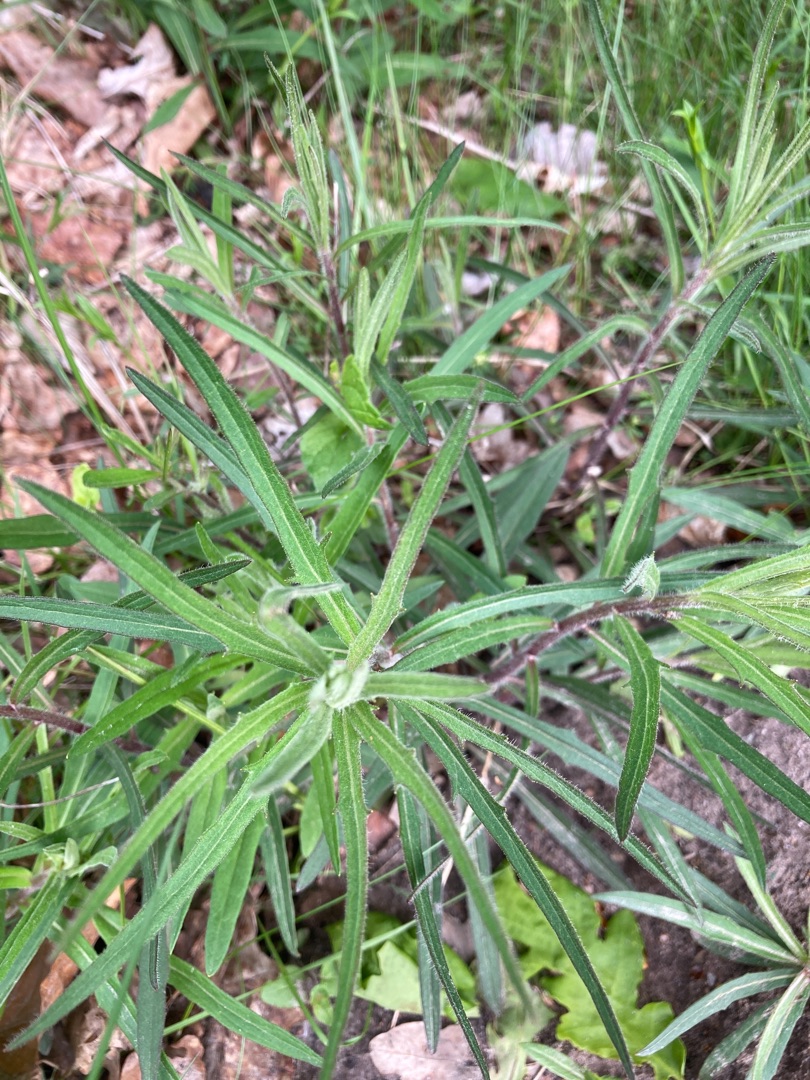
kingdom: Plantae
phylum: Tracheophyta
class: Magnoliopsida
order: Asterales
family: Asteraceae
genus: Hieracium
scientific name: Hieracium umbellatum
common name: Smalbladet høgeurt
